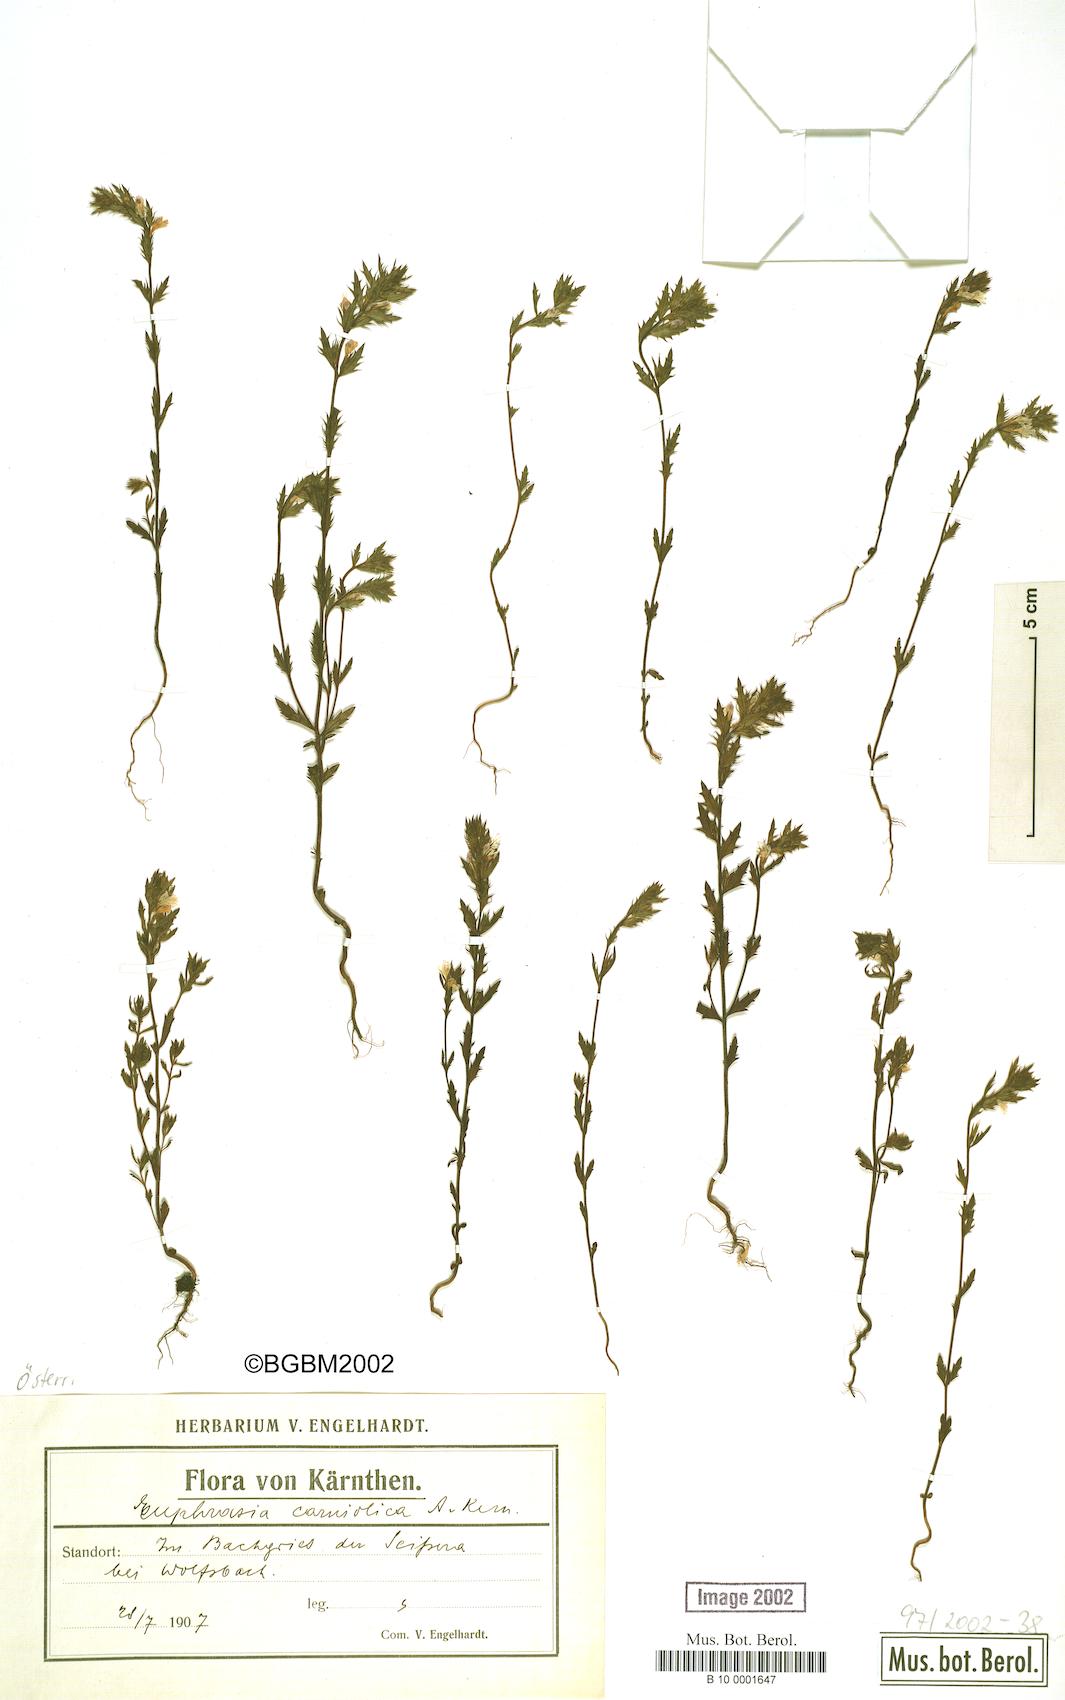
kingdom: Plantae
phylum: Tracheophyta
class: Magnoliopsida
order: Lamiales
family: Orobanchaceae
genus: Euphrasia
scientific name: Euphrasia officinalis
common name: Eyebright
